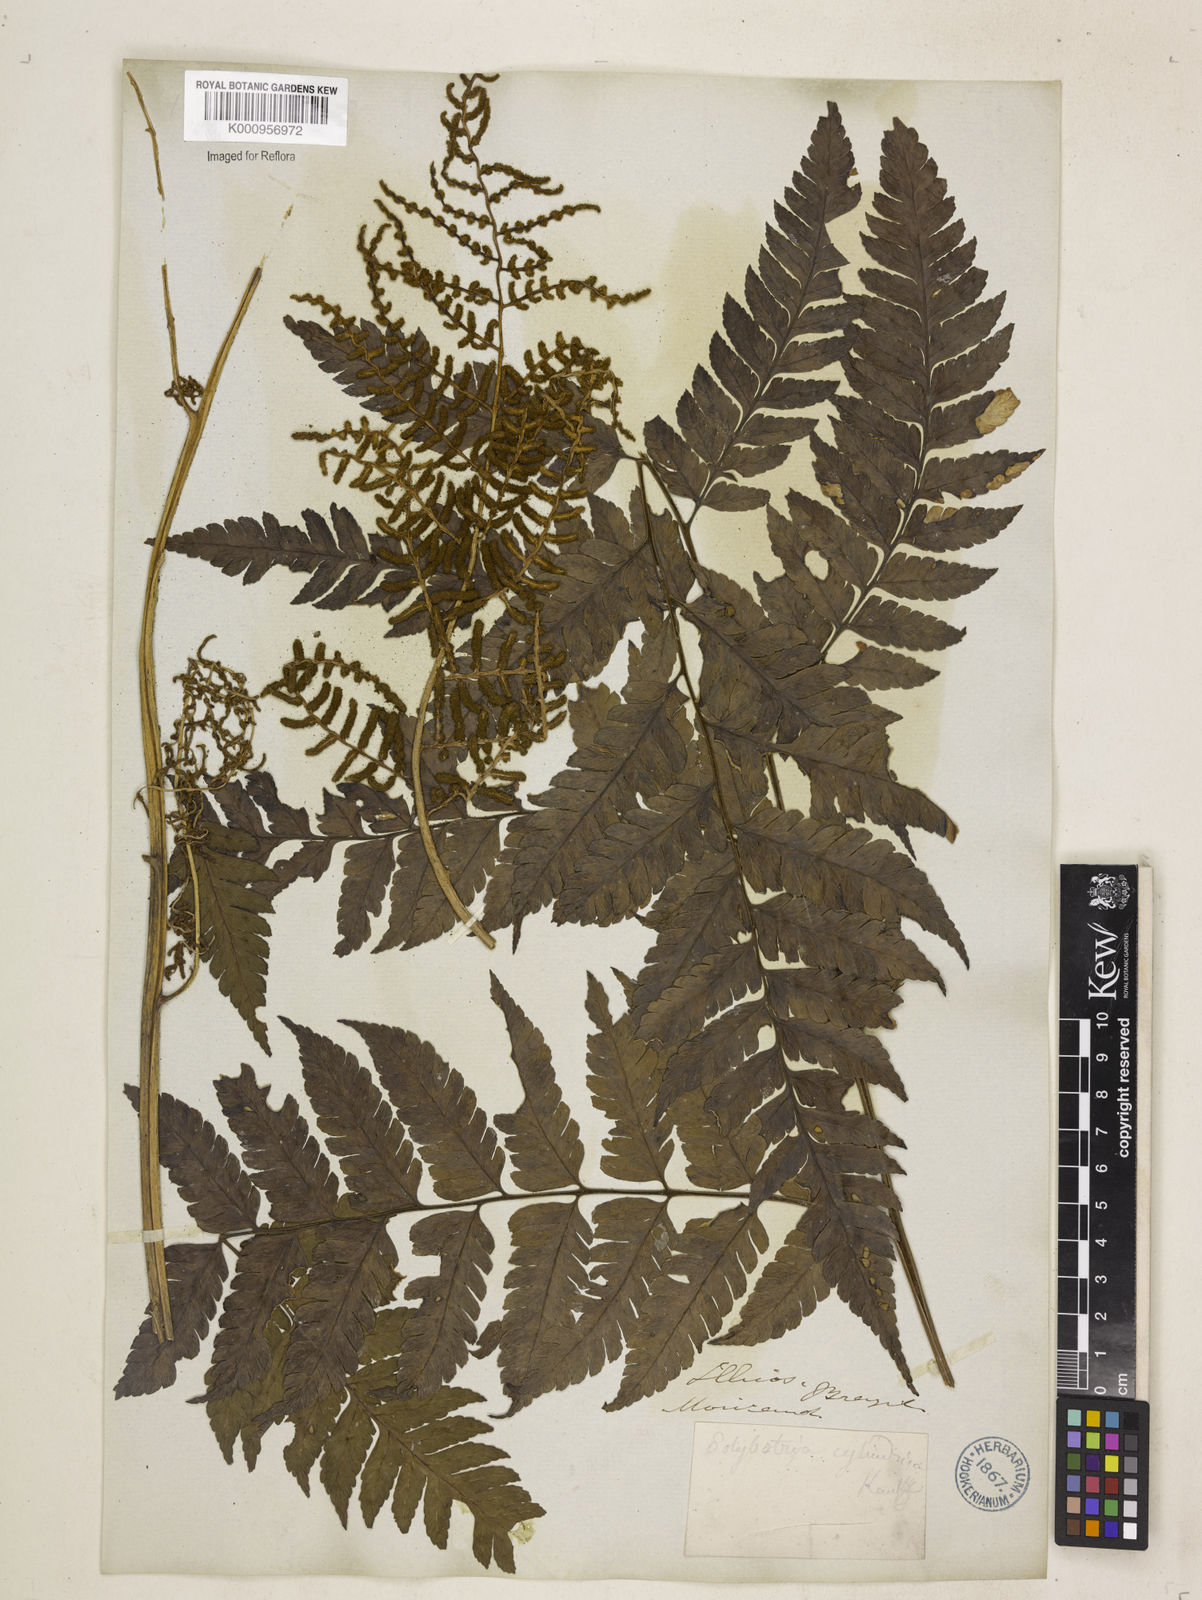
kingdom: Plantae
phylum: Tracheophyta
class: Polypodiopsida
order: Polypodiales
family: Dryopteridaceae
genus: Polybotrya
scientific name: Polybotrya osmundacea
